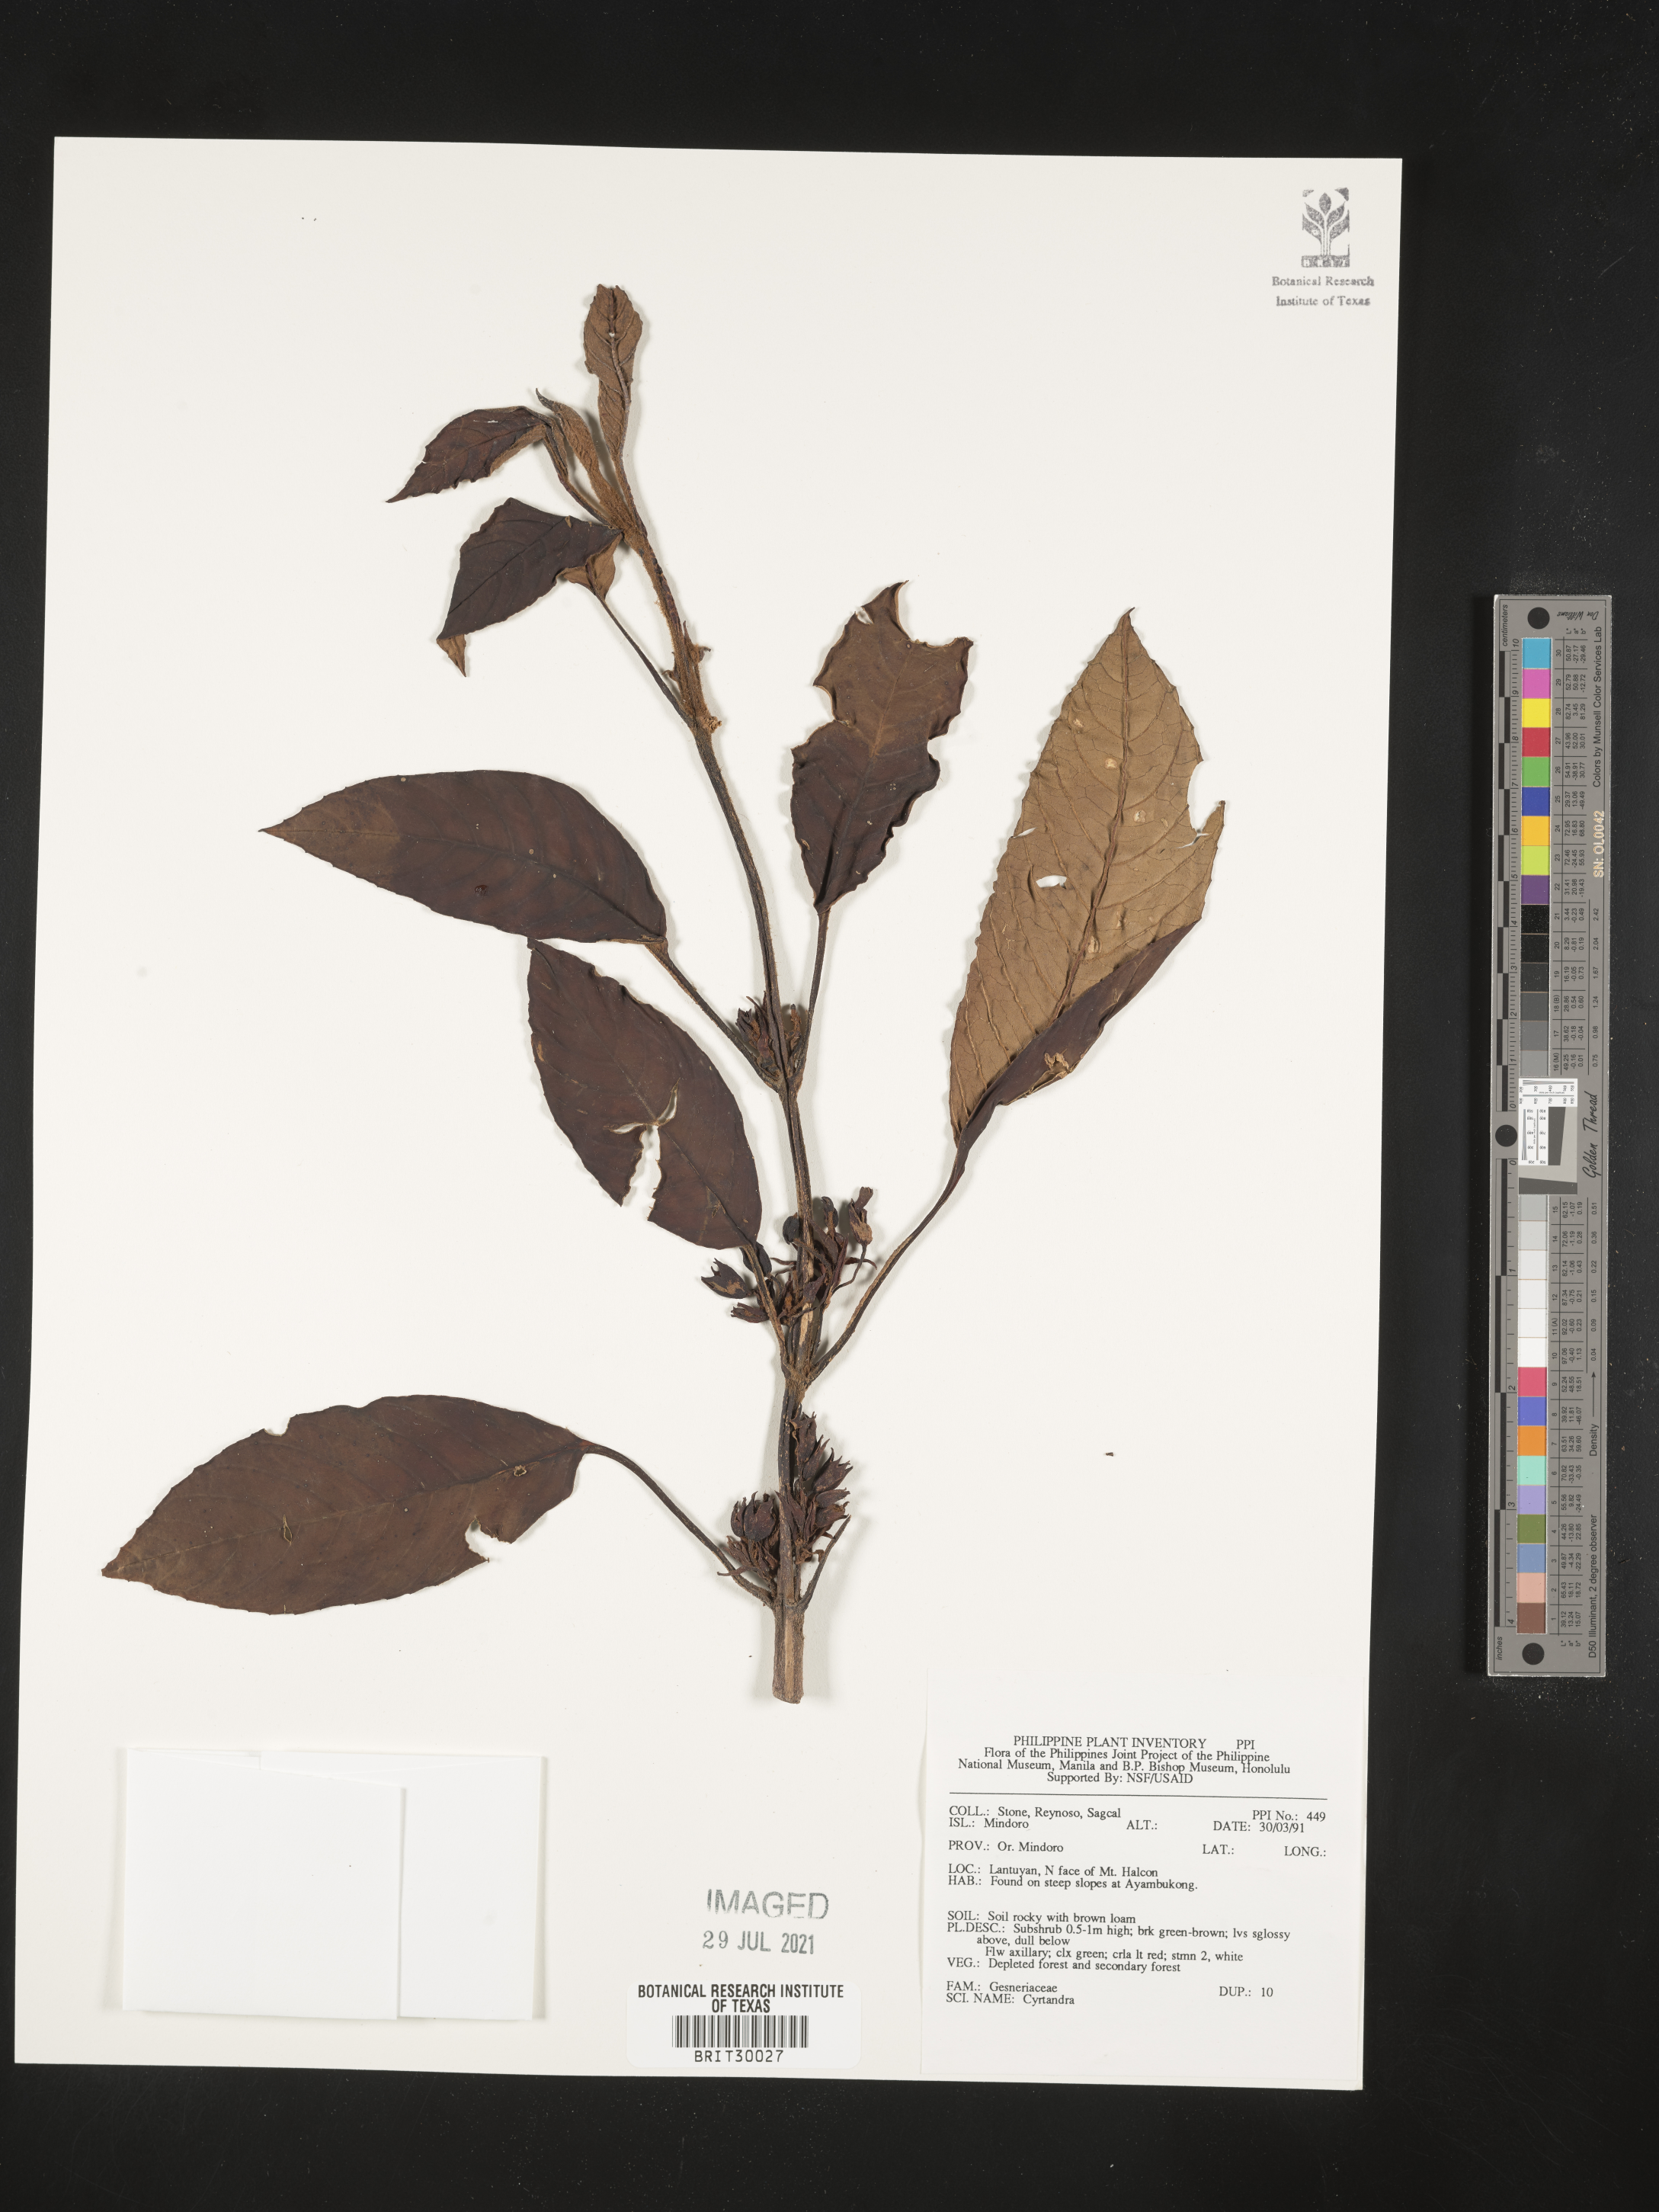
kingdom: Plantae
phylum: Tracheophyta
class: Magnoliopsida
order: Lamiales
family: Gesneriaceae
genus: Cyrtandra
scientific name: Cyrtandra
